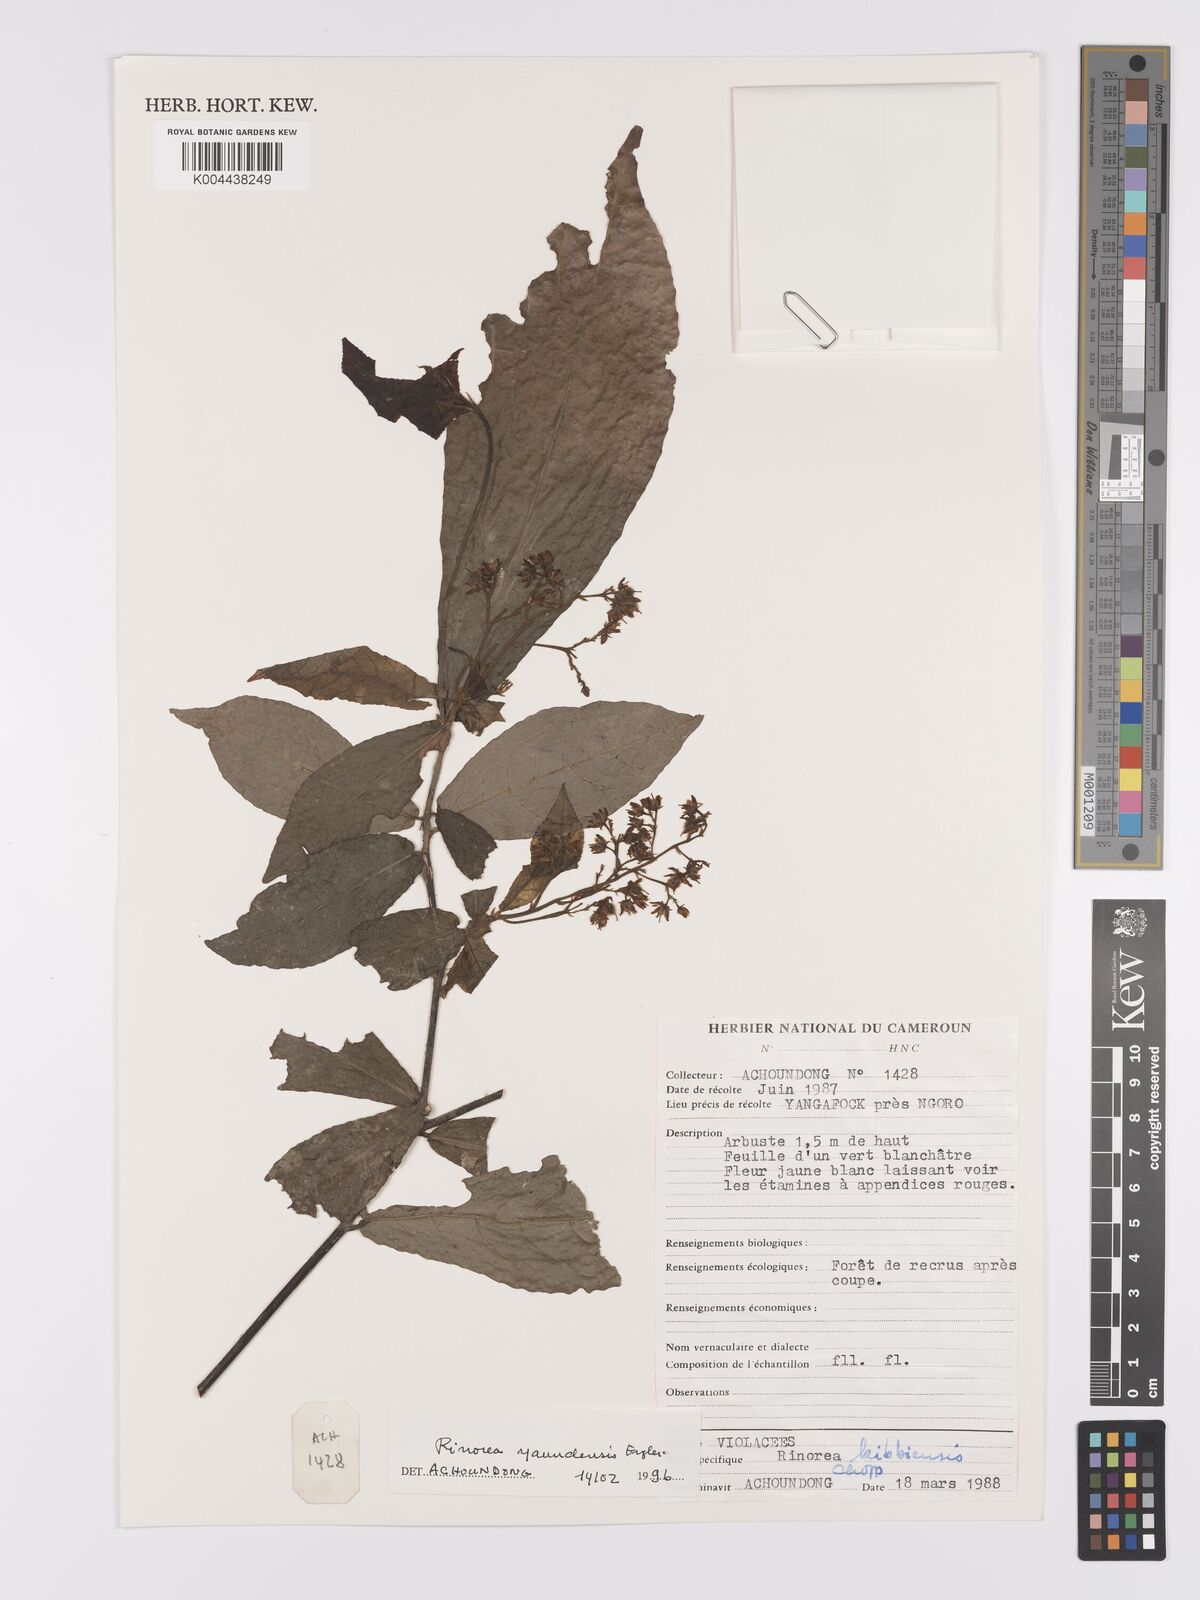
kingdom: Plantae
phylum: Tracheophyta
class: Magnoliopsida
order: Malpighiales
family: Violaceae
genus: Rinorea
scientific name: Rinorea yaundensis
